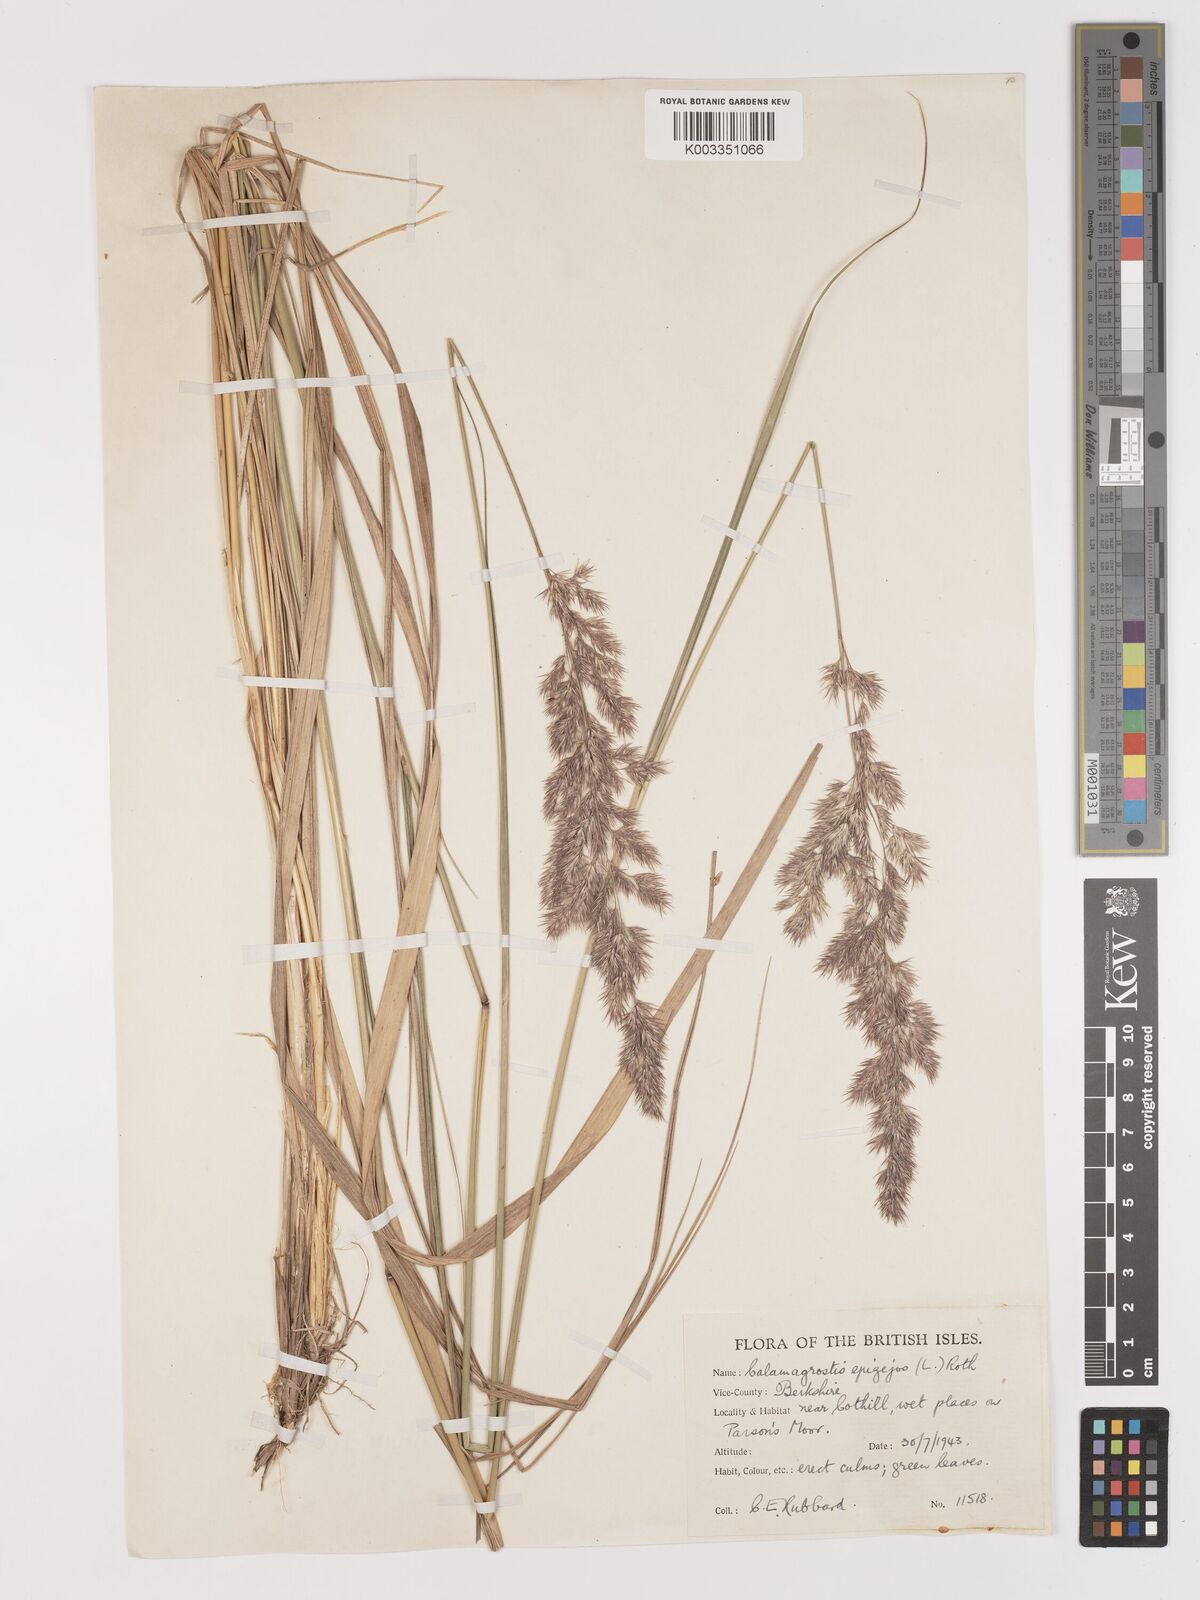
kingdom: Plantae
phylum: Tracheophyta
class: Liliopsida
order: Poales
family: Poaceae
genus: Calamagrostis
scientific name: Calamagrostis epigejos
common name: Wood small-reed
